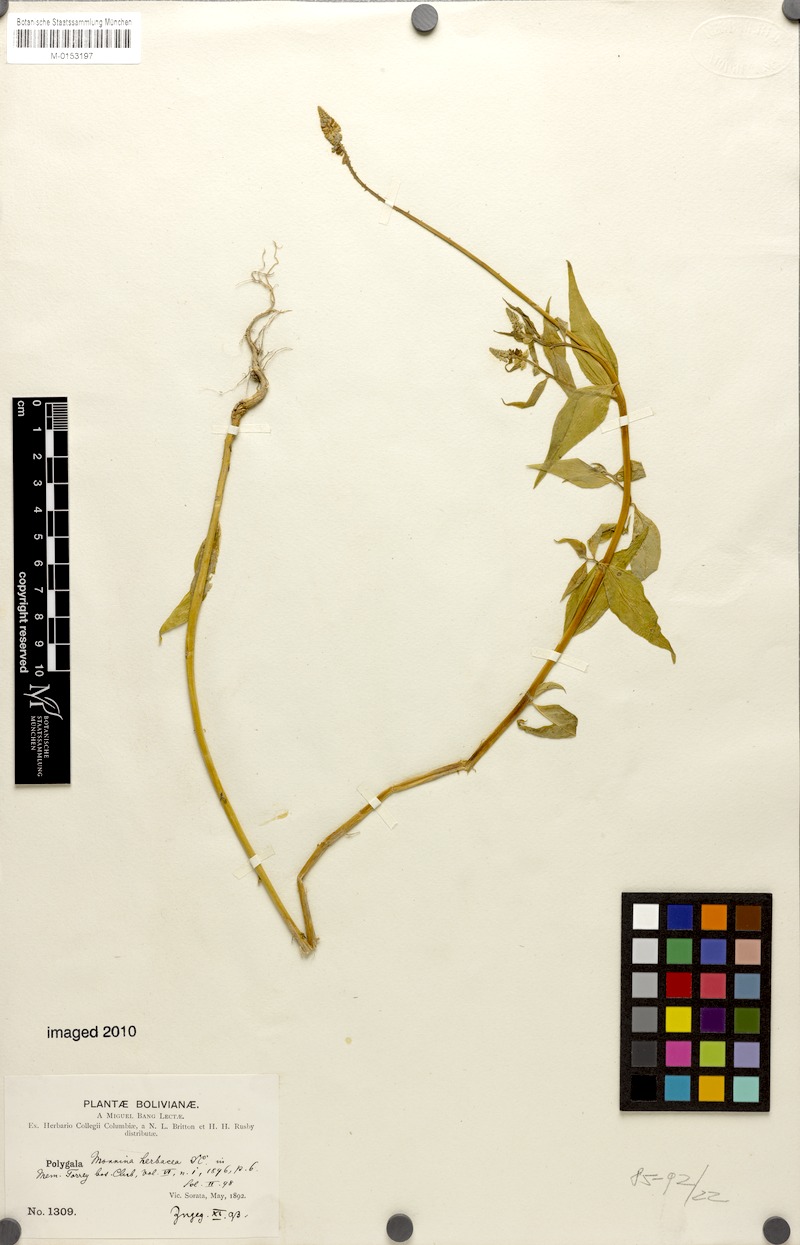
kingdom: Plantae
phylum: Tracheophyta
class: Magnoliopsida
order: Fabales
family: Polygalaceae
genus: Monnina
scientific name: Monnina herbacea
